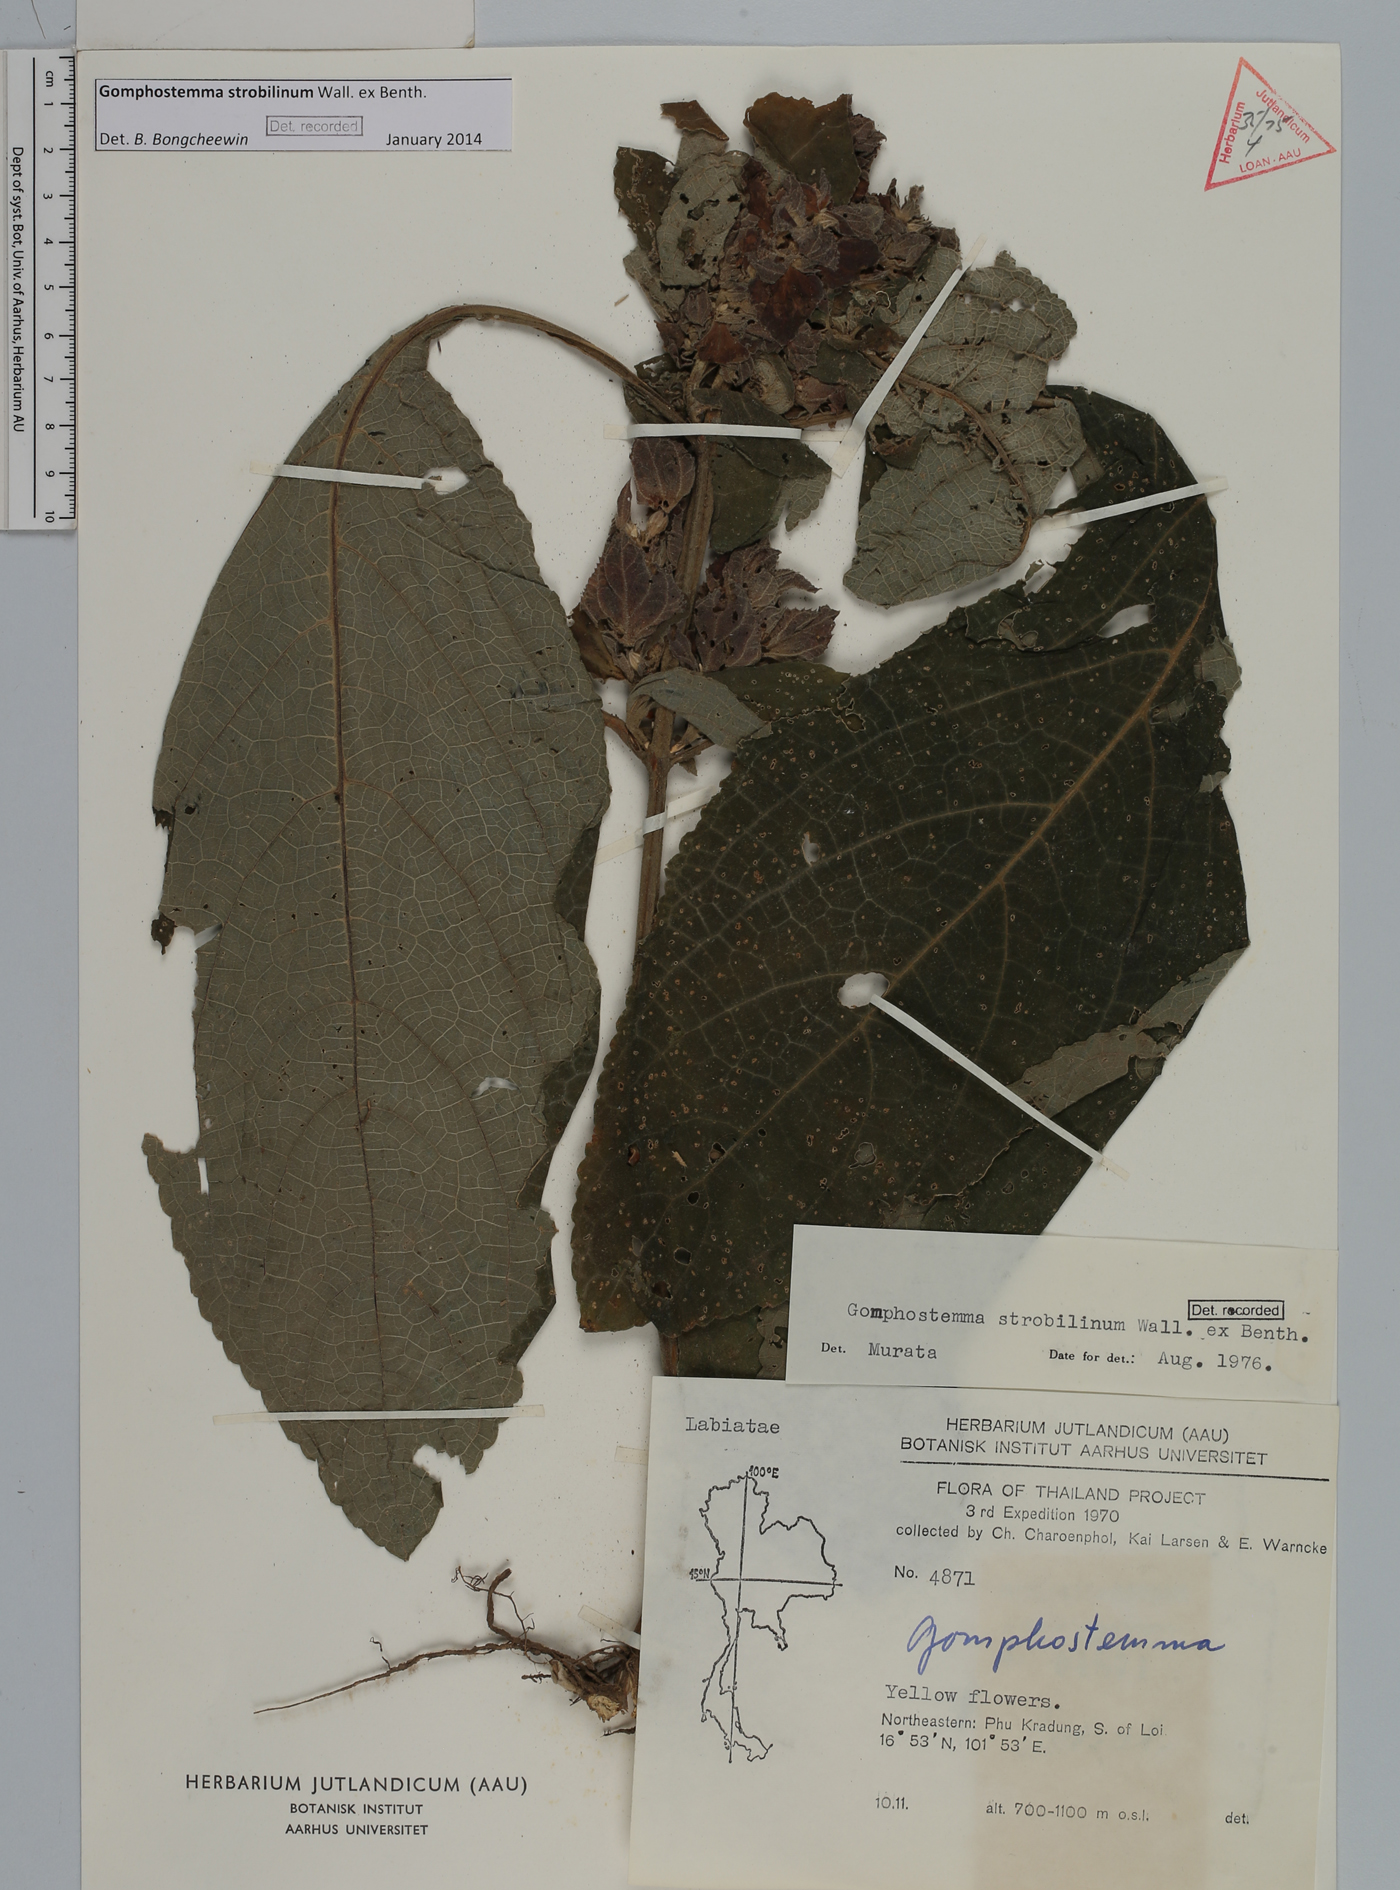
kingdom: Plantae
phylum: Tracheophyta
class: Magnoliopsida
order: Lamiales
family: Lamiaceae
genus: Gomphostemma
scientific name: Gomphostemma strobilinum
